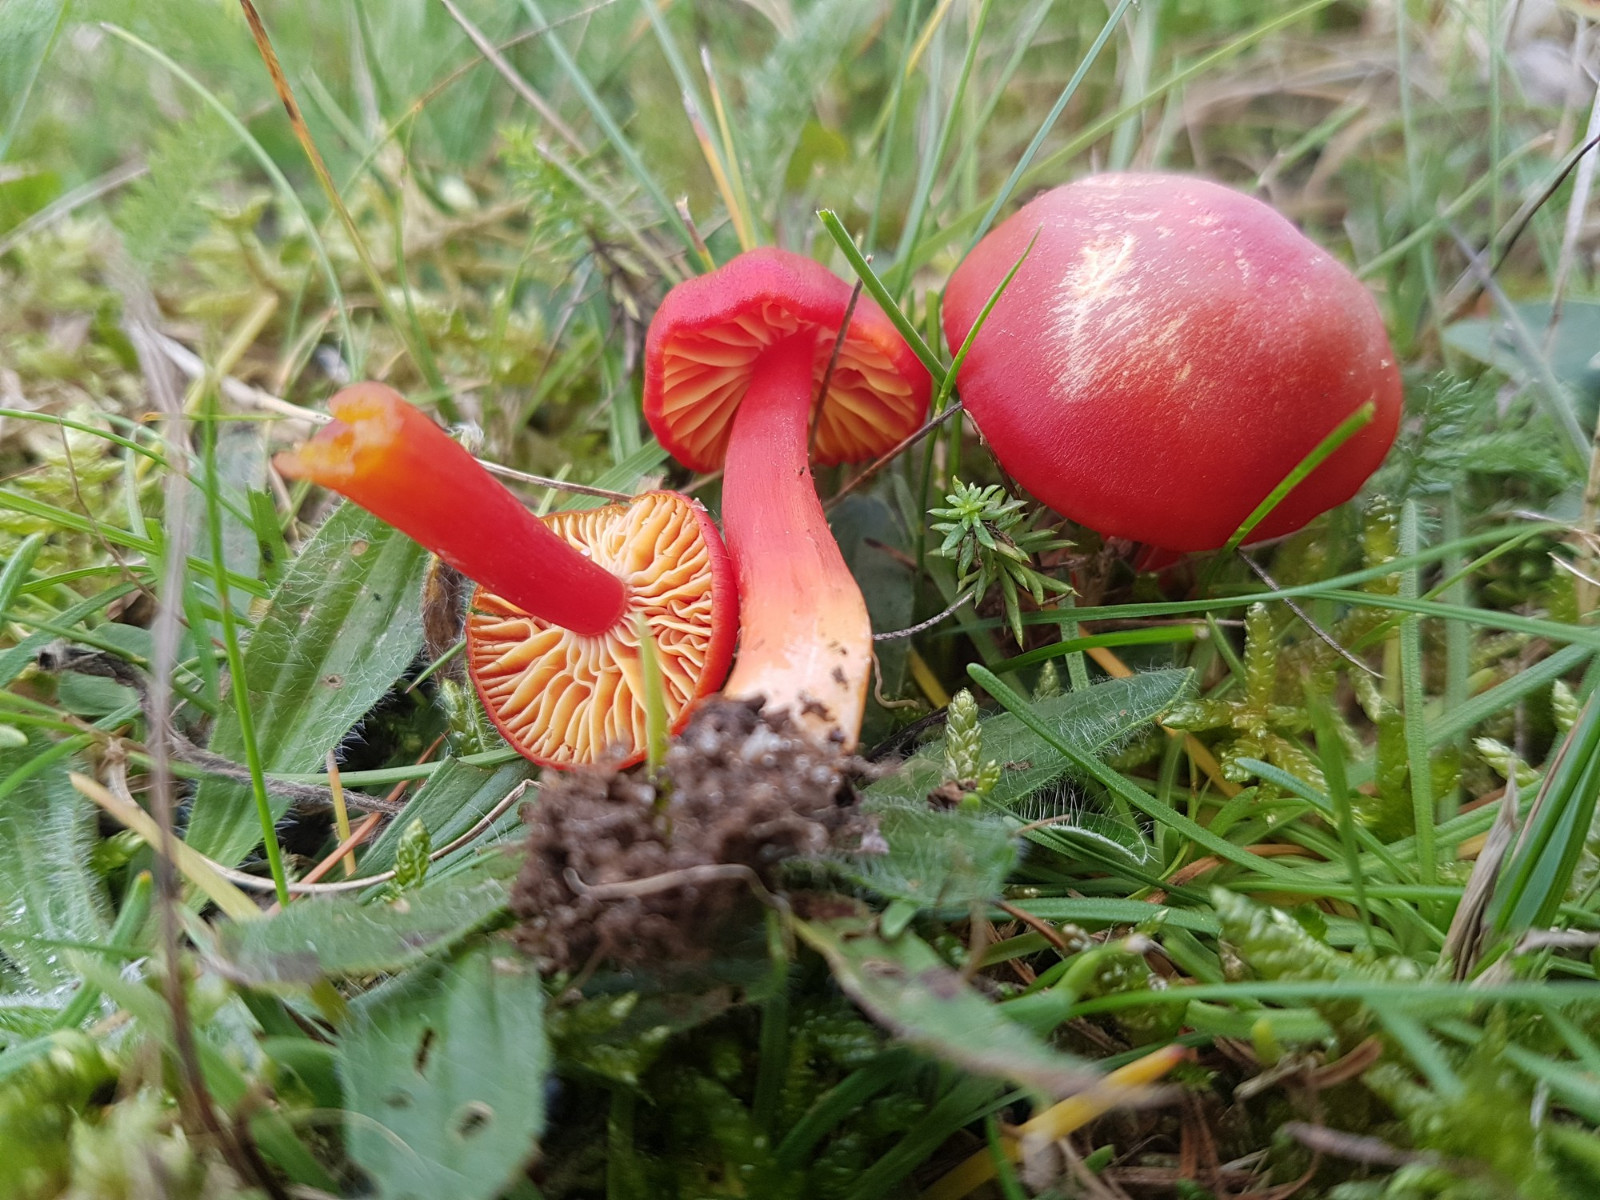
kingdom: Fungi
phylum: Basidiomycota
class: Agaricomycetes
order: Agaricales
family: Hygrophoraceae
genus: Hygrocybe
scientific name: Hygrocybe coccinea
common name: cinnober-vokshat
